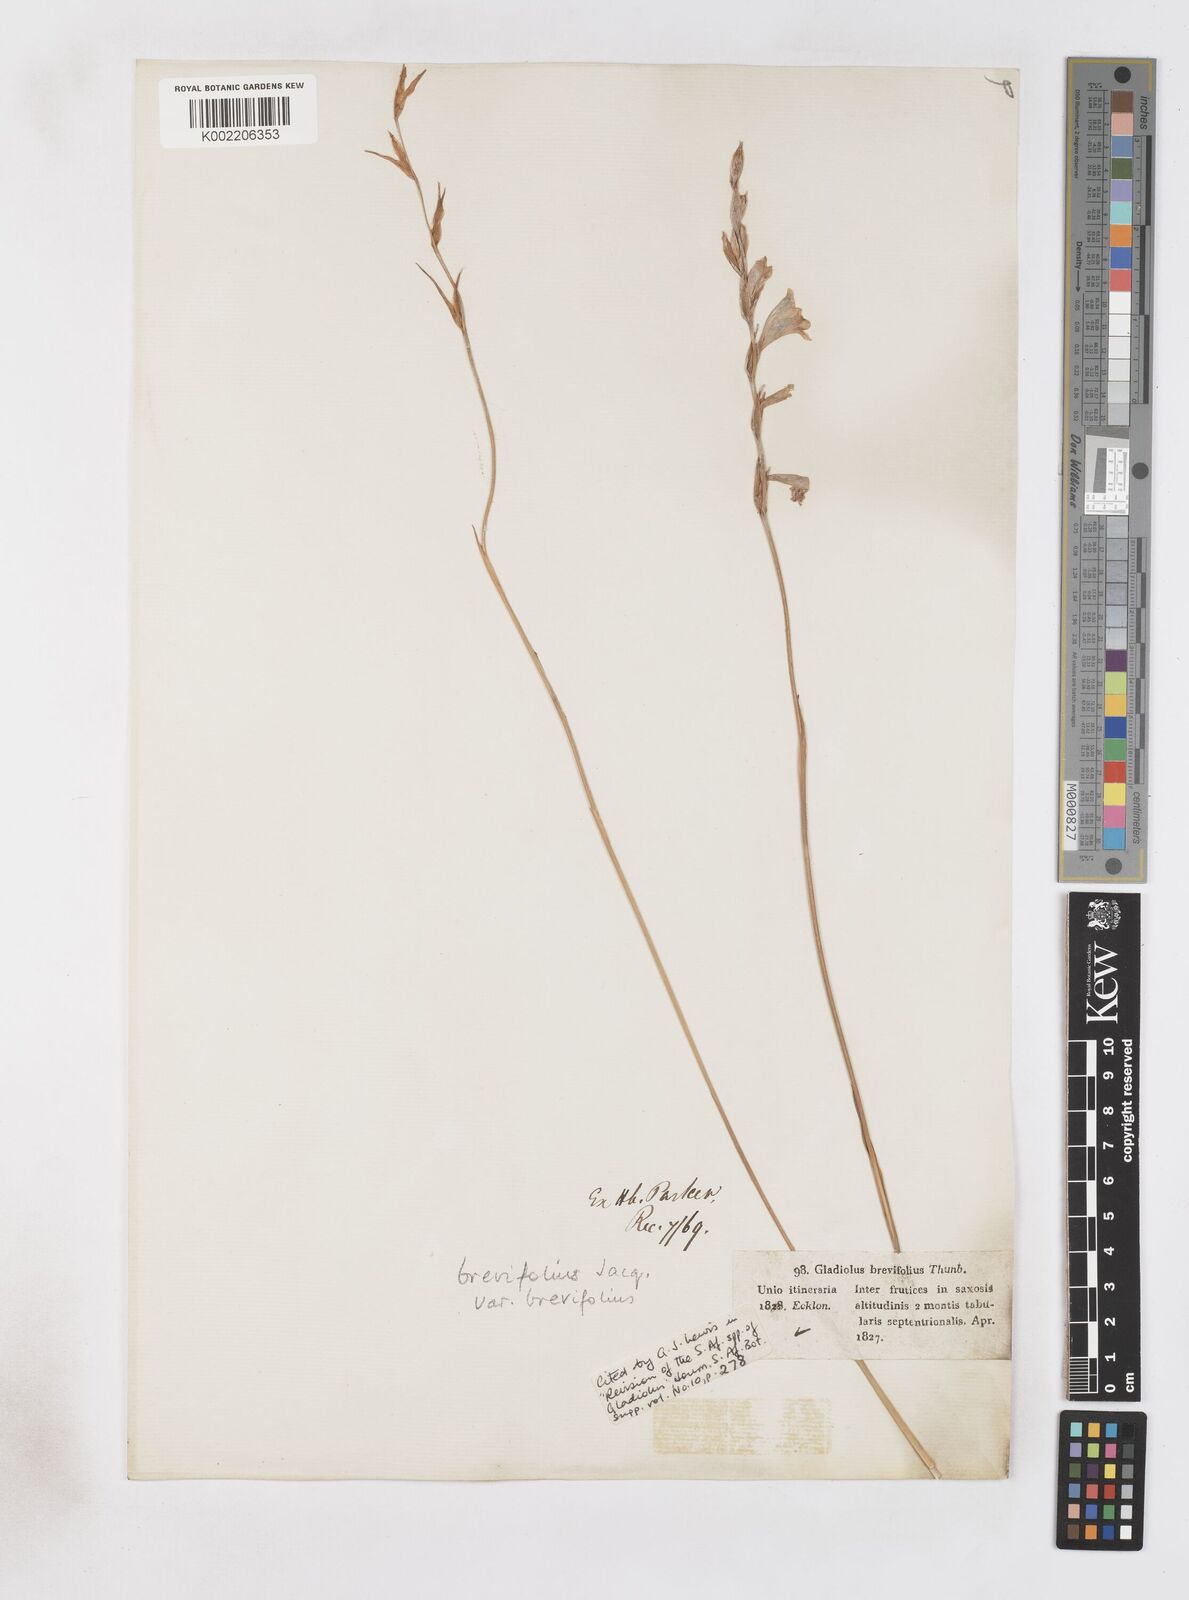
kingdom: Plantae
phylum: Tracheophyta
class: Liliopsida
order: Asparagales
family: Iridaceae
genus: Gladiolus
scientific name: Gladiolus brevifolius
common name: March pypie
